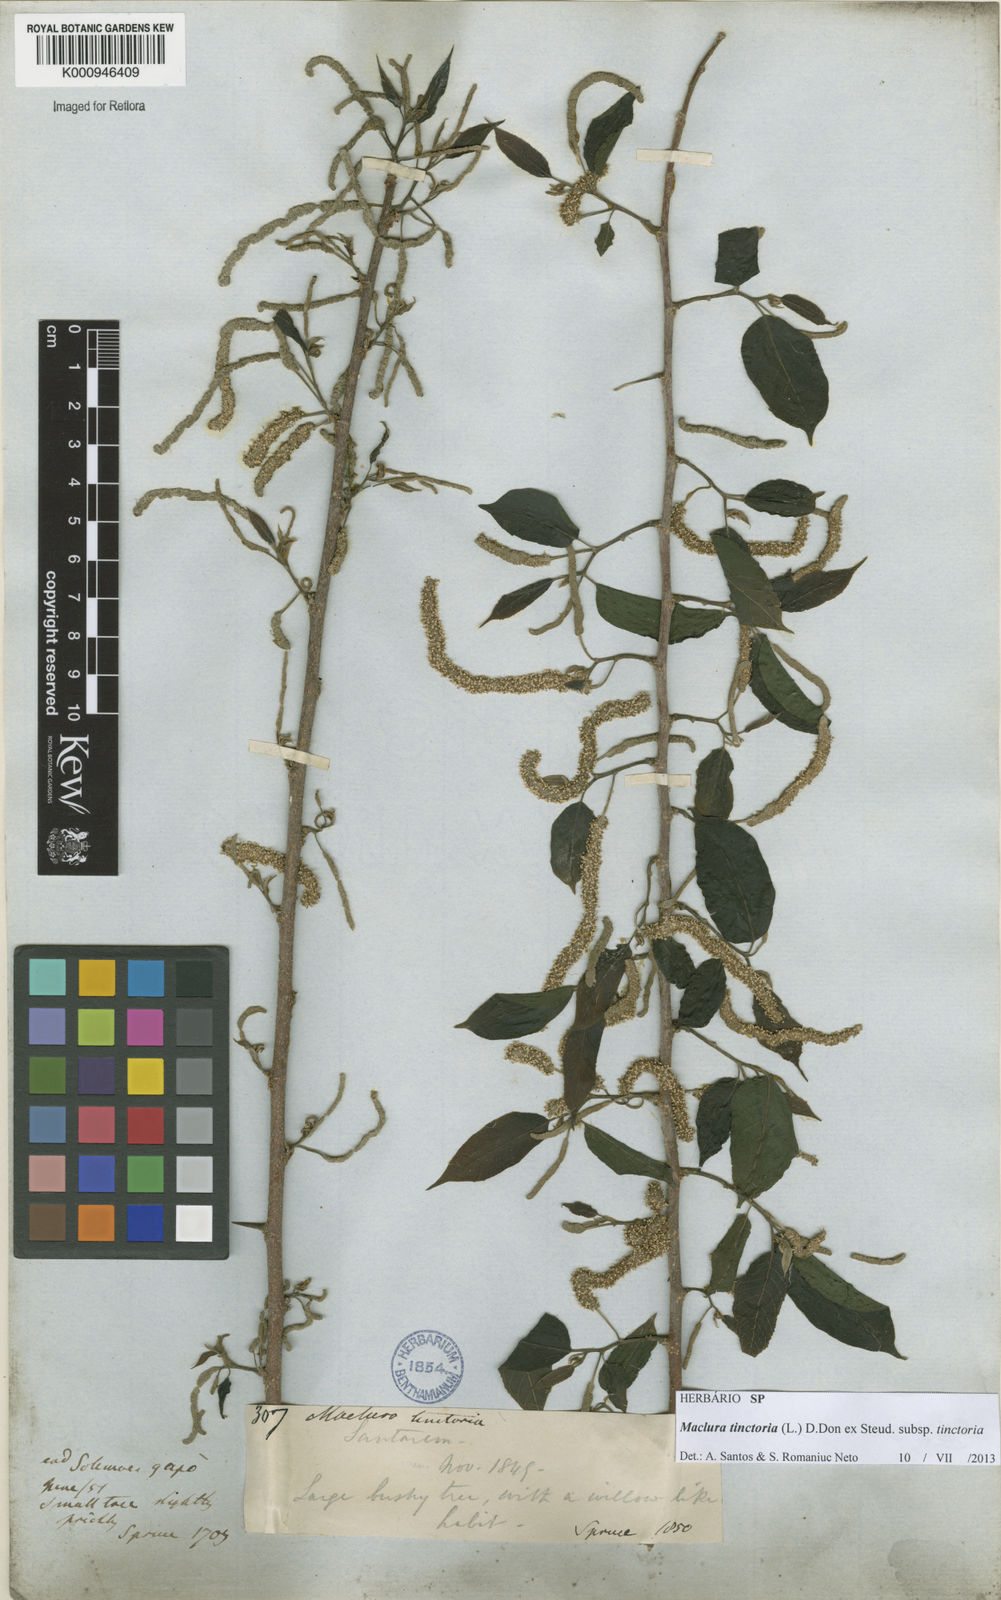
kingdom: Plantae
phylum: Tracheophyta
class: Magnoliopsida
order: Rosales
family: Moraceae
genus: Maclura
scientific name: Maclura
